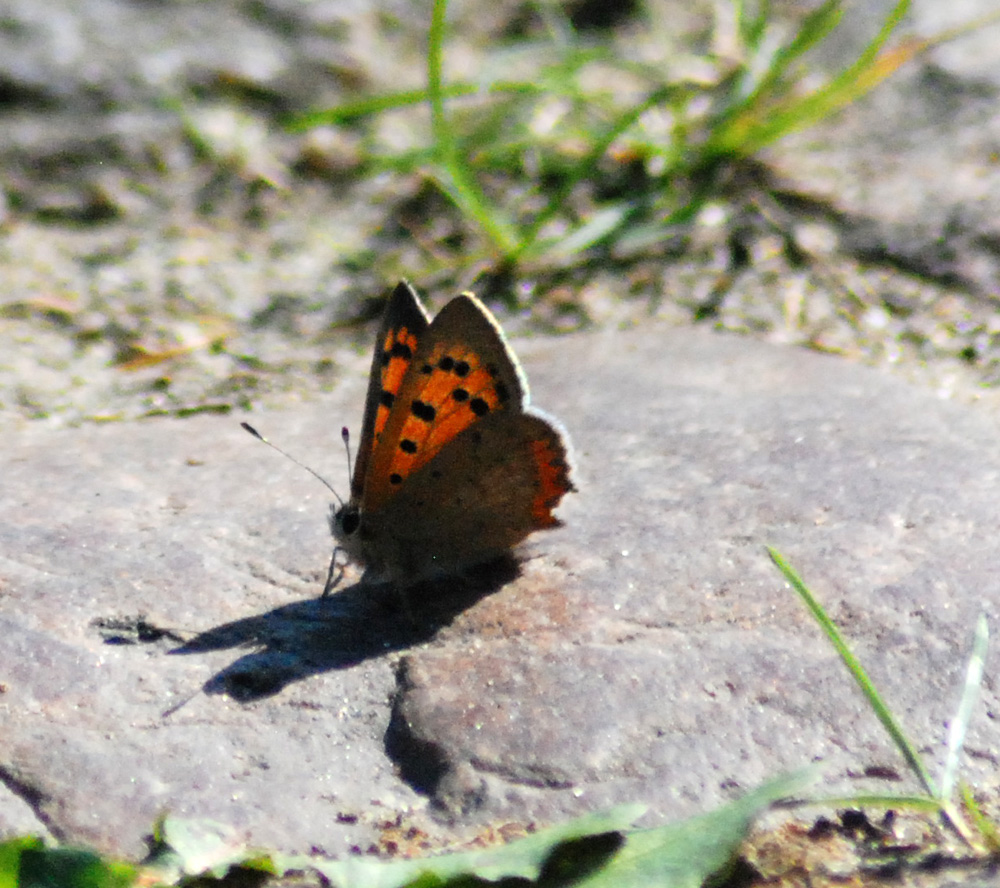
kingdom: Animalia
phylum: Arthropoda
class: Insecta
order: Lepidoptera
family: Lycaenidae
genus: Lycaena
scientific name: Lycaena phlaeas
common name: Small copper
